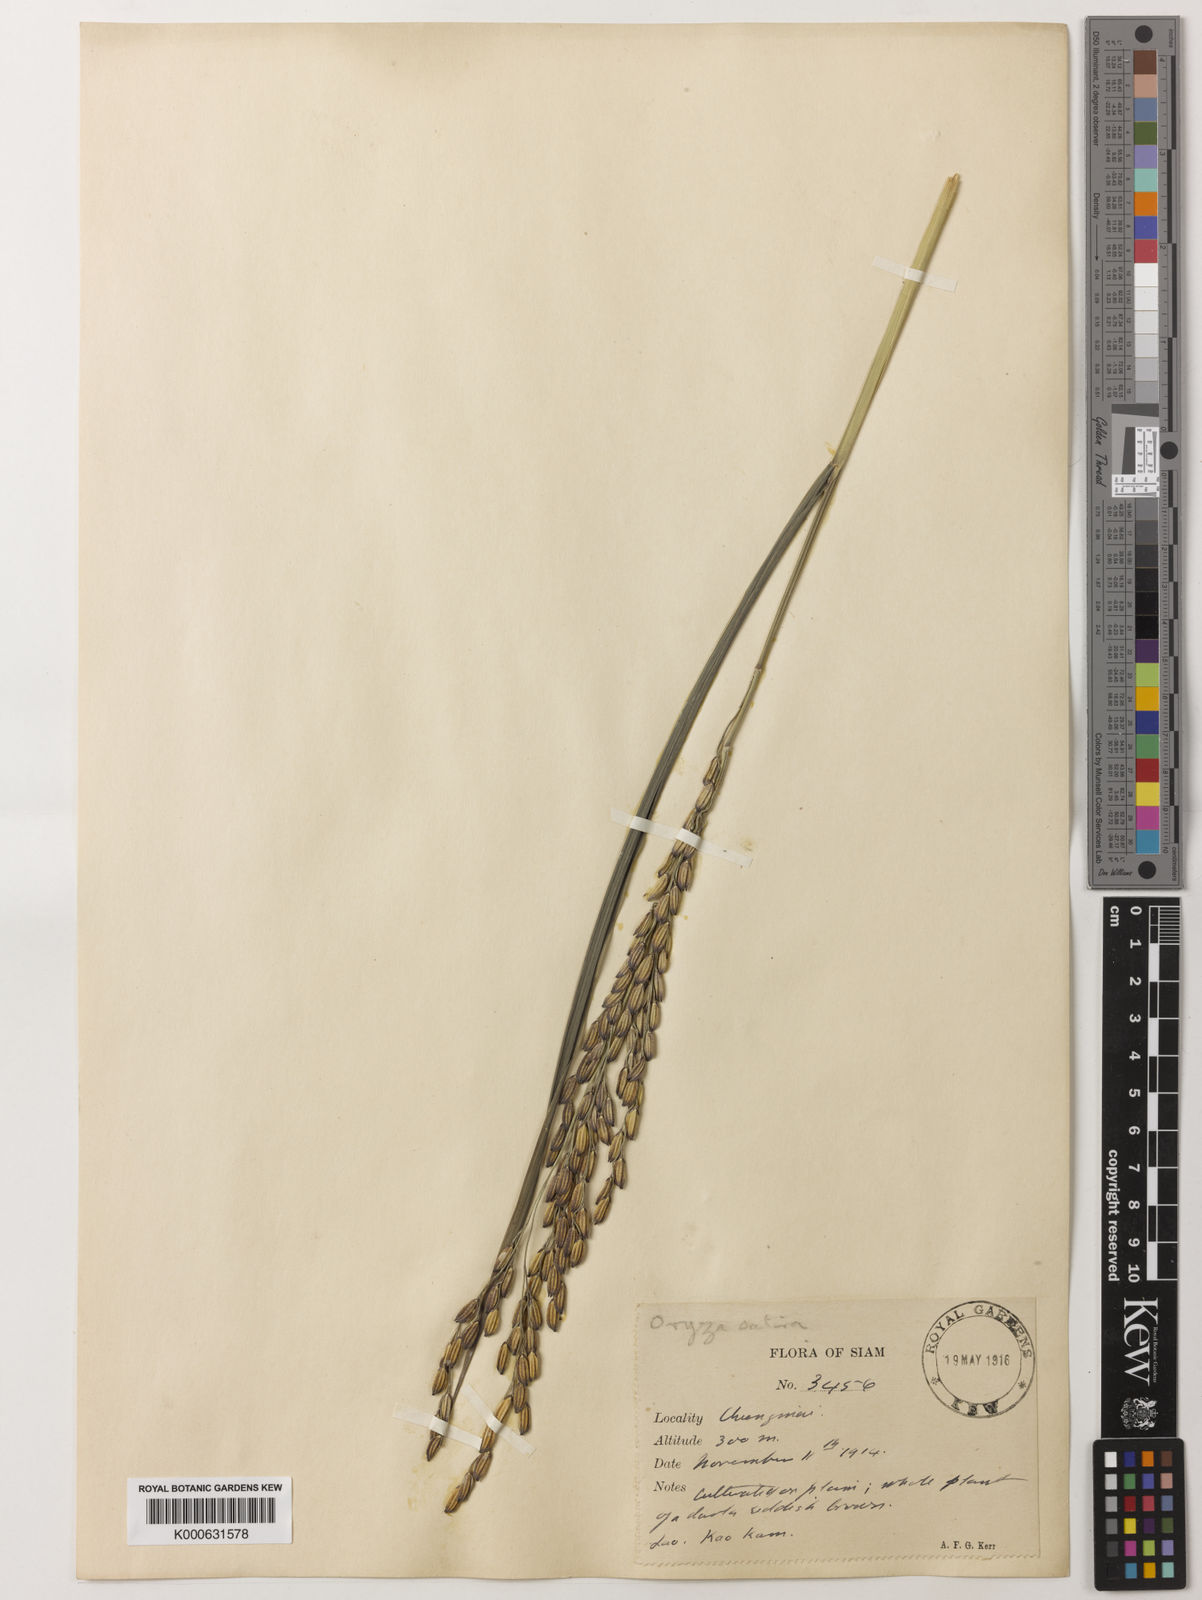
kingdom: Plantae
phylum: Tracheophyta
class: Liliopsida
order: Poales
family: Poaceae
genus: Oryza
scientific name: Oryza sativa
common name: Rice
